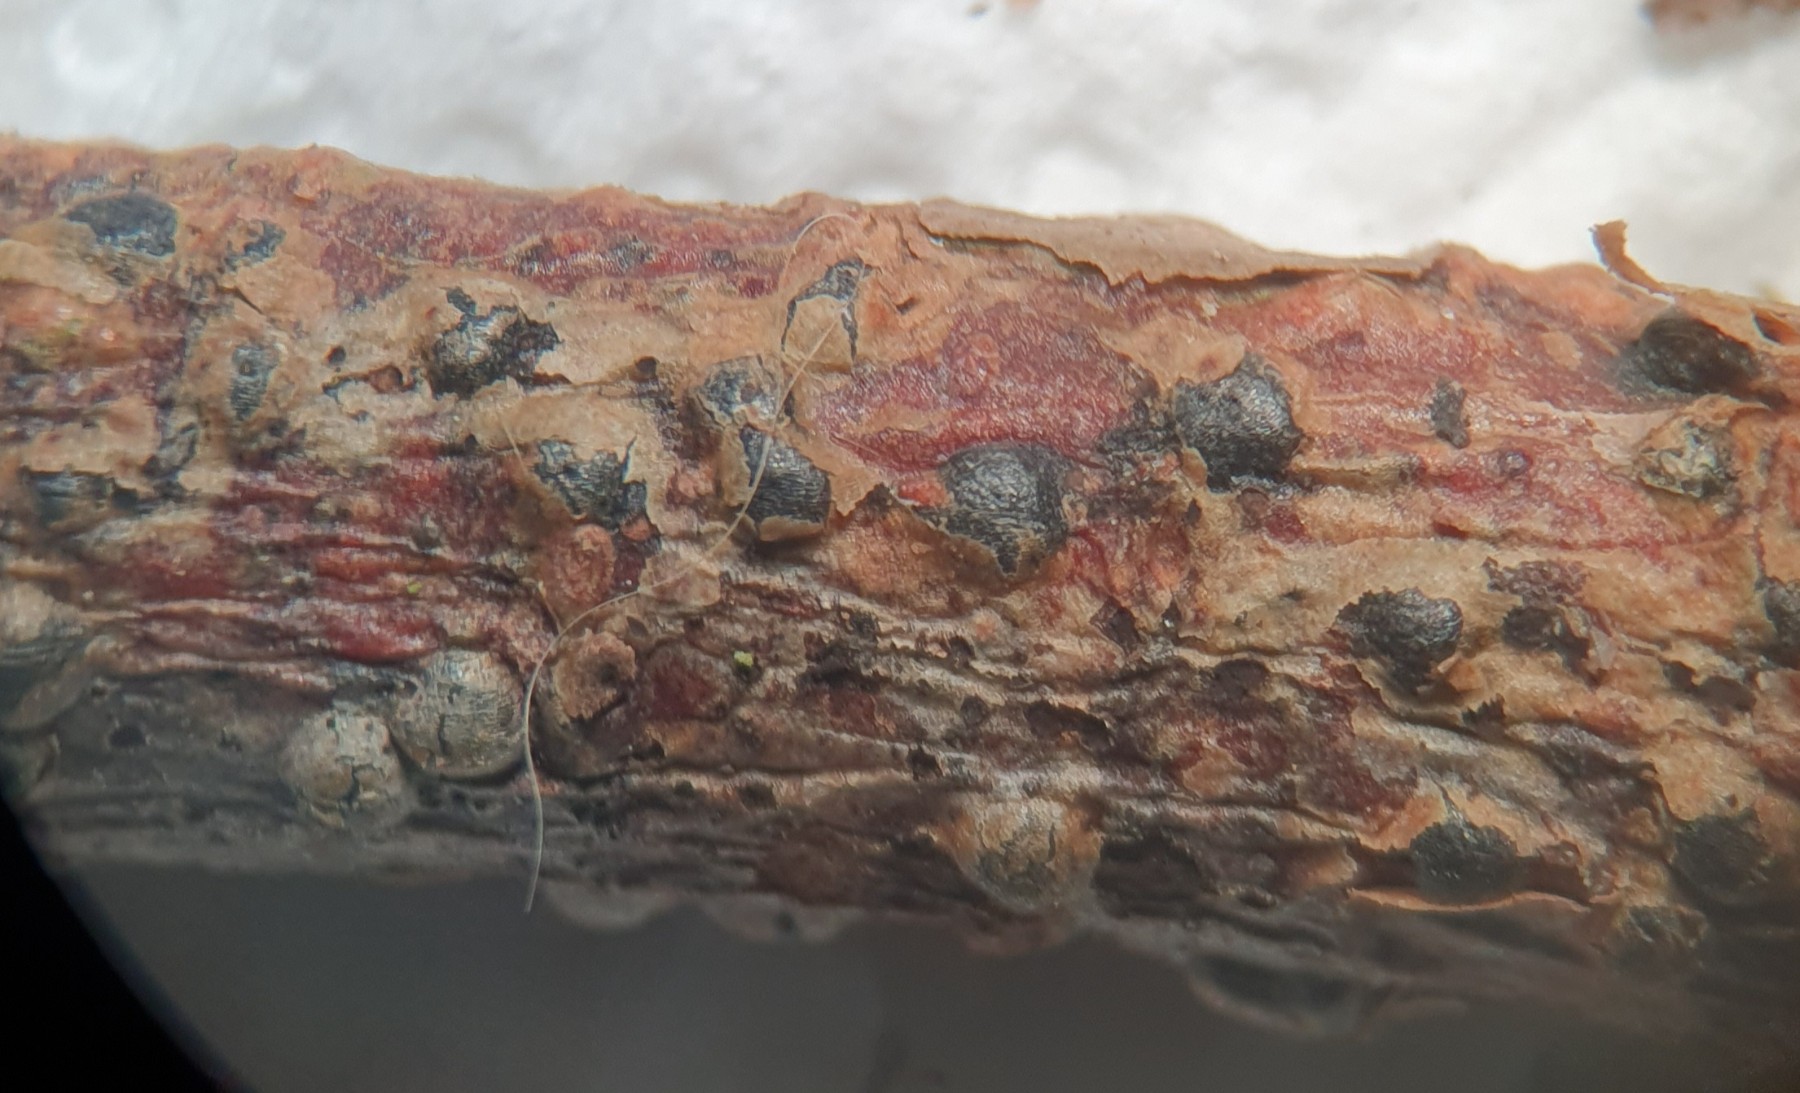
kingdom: Fungi
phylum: Ascomycota
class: Leotiomycetes
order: Rhytismatales
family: Rhytismataceae
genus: Therrya
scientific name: Therrya pini
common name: fyrre-tandskive
